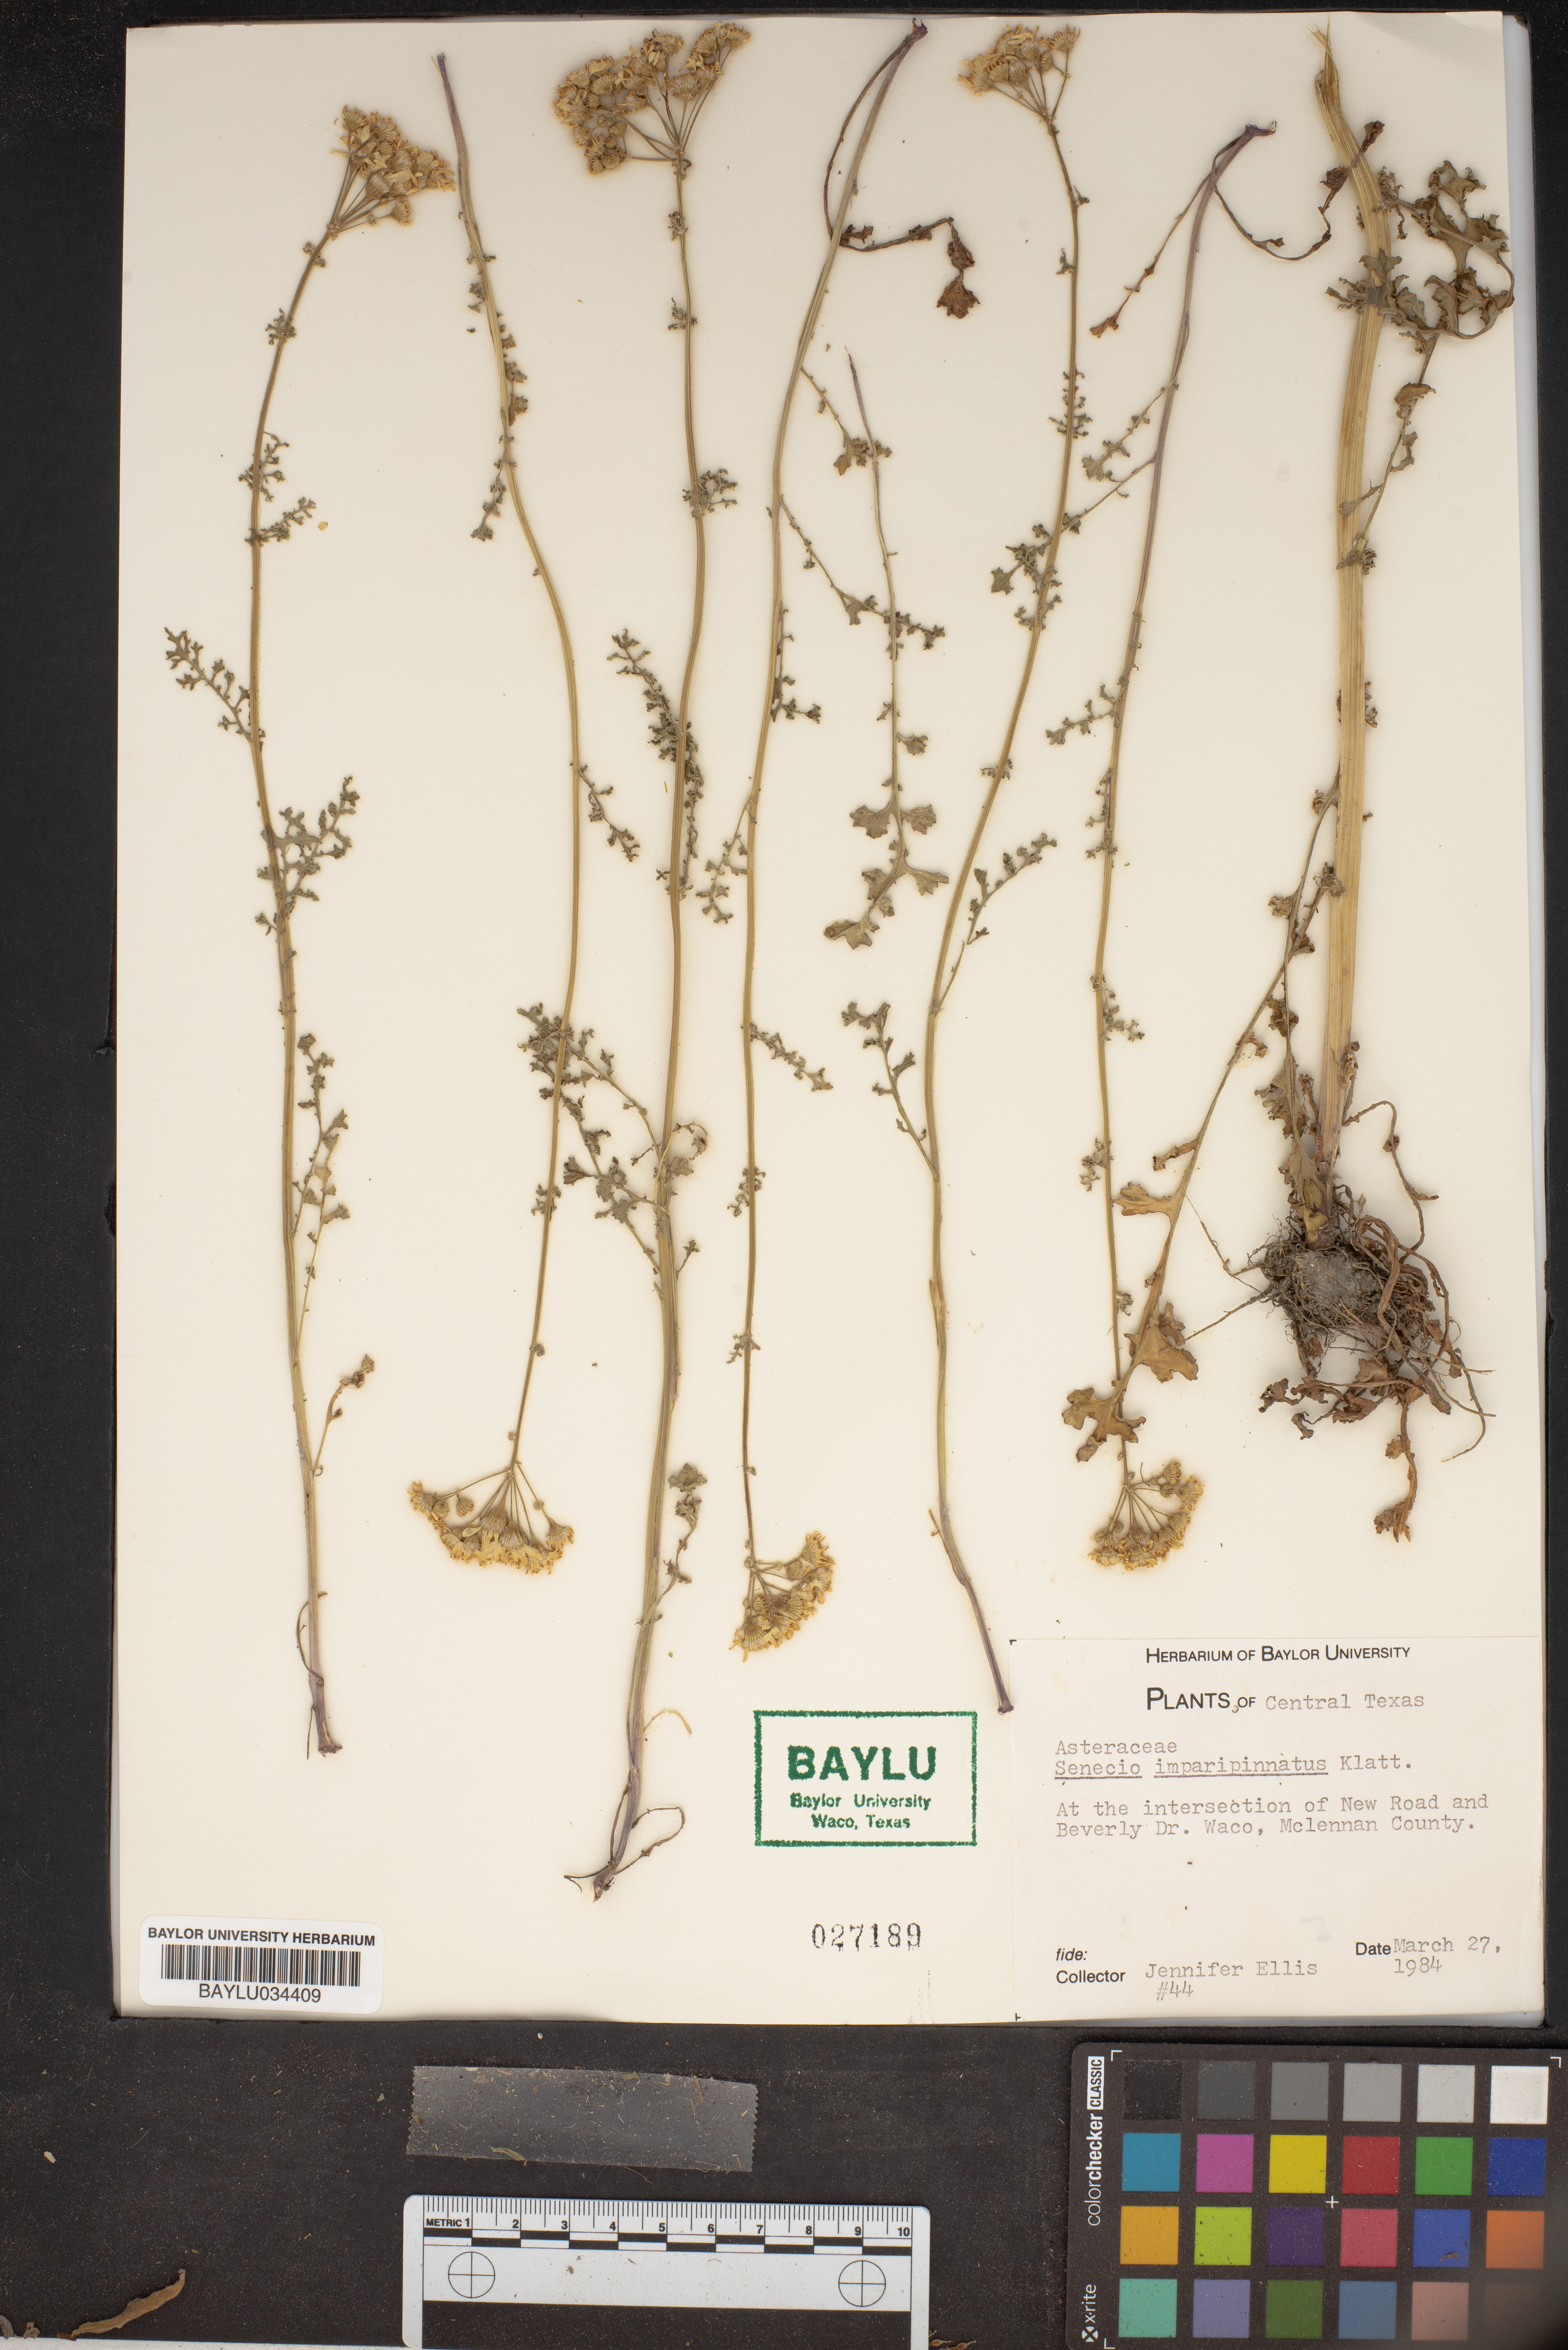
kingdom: Plantae
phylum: Tracheophyta
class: Magnoliopsida
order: Asterales
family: Asteraceae
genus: Packera
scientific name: Packera tampicana
